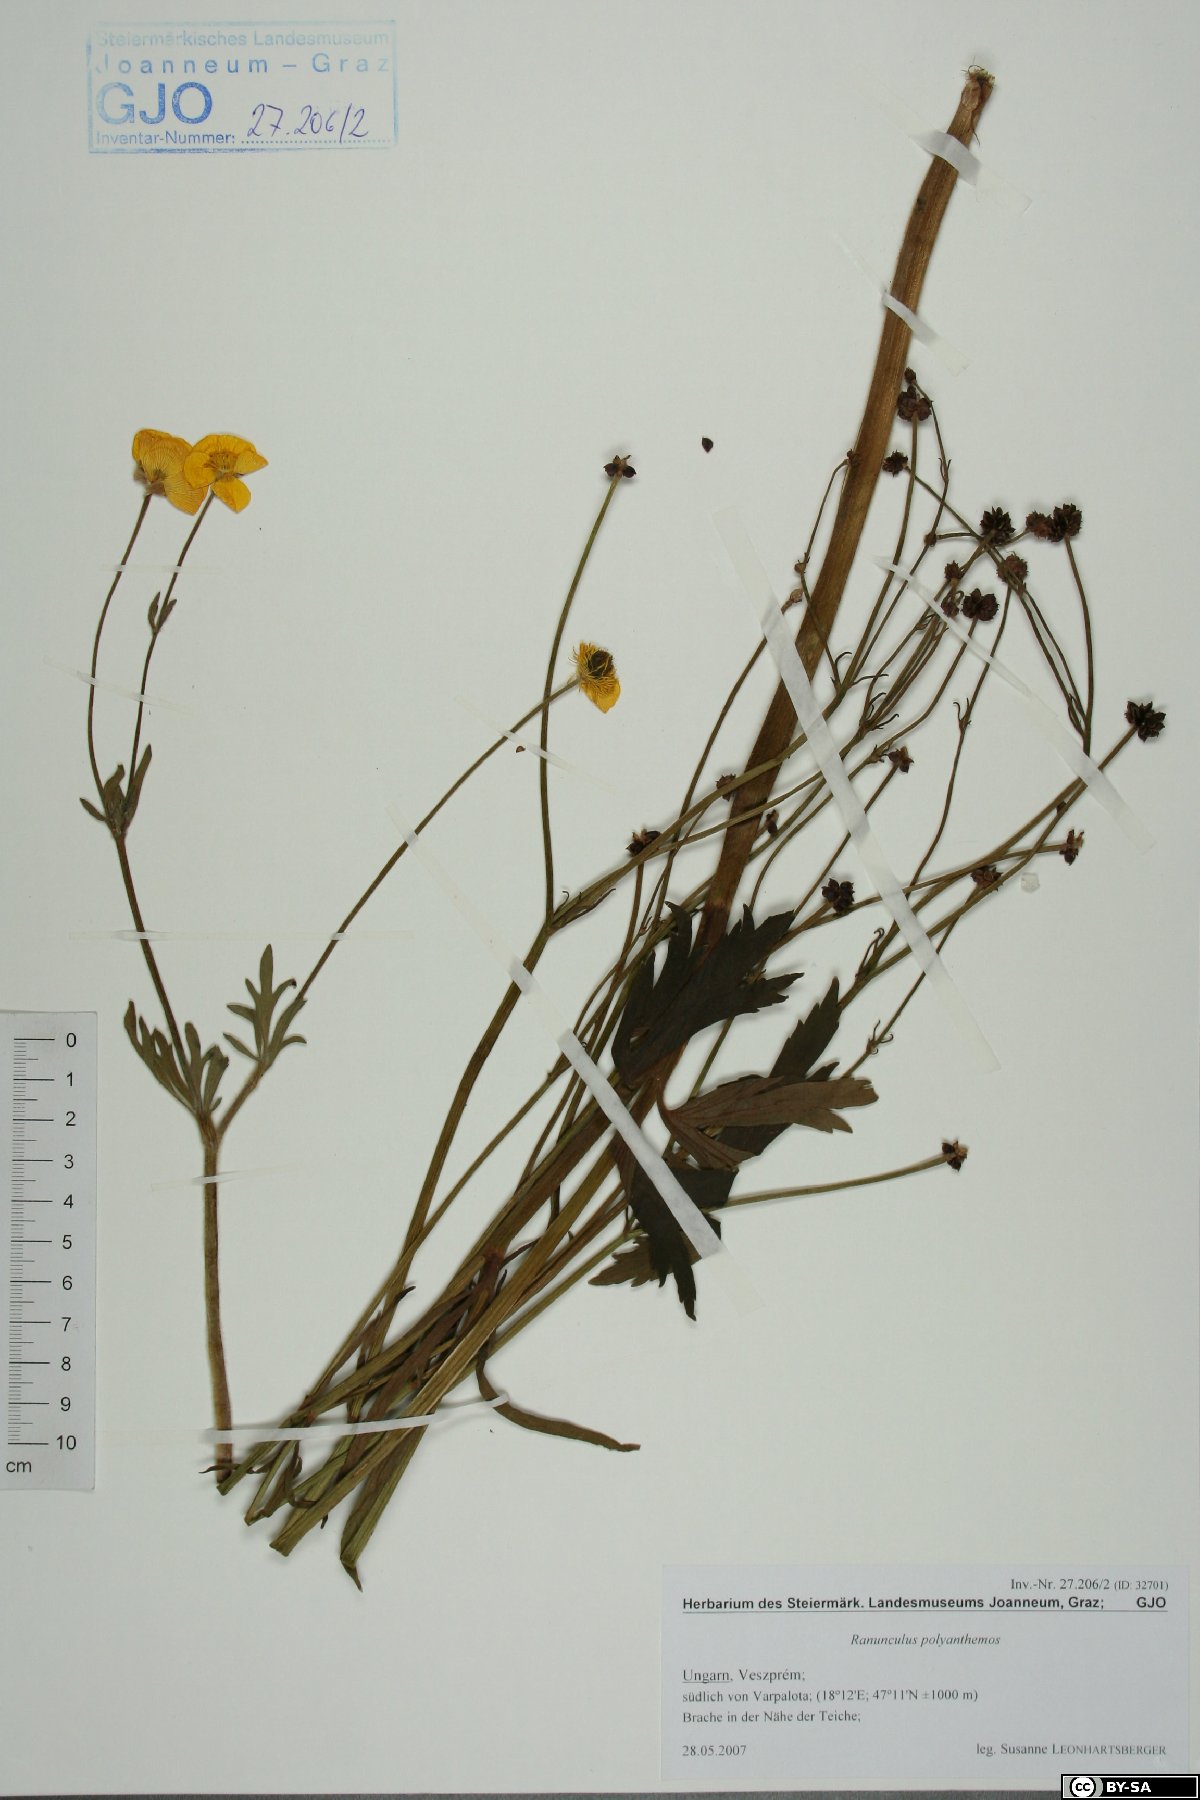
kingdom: Plantae
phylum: Tracheophyta
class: Magnoliopsida
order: Ranunculales
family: Ranunculaceae
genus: Ranunculus
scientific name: Ranunculus polyanthemos
